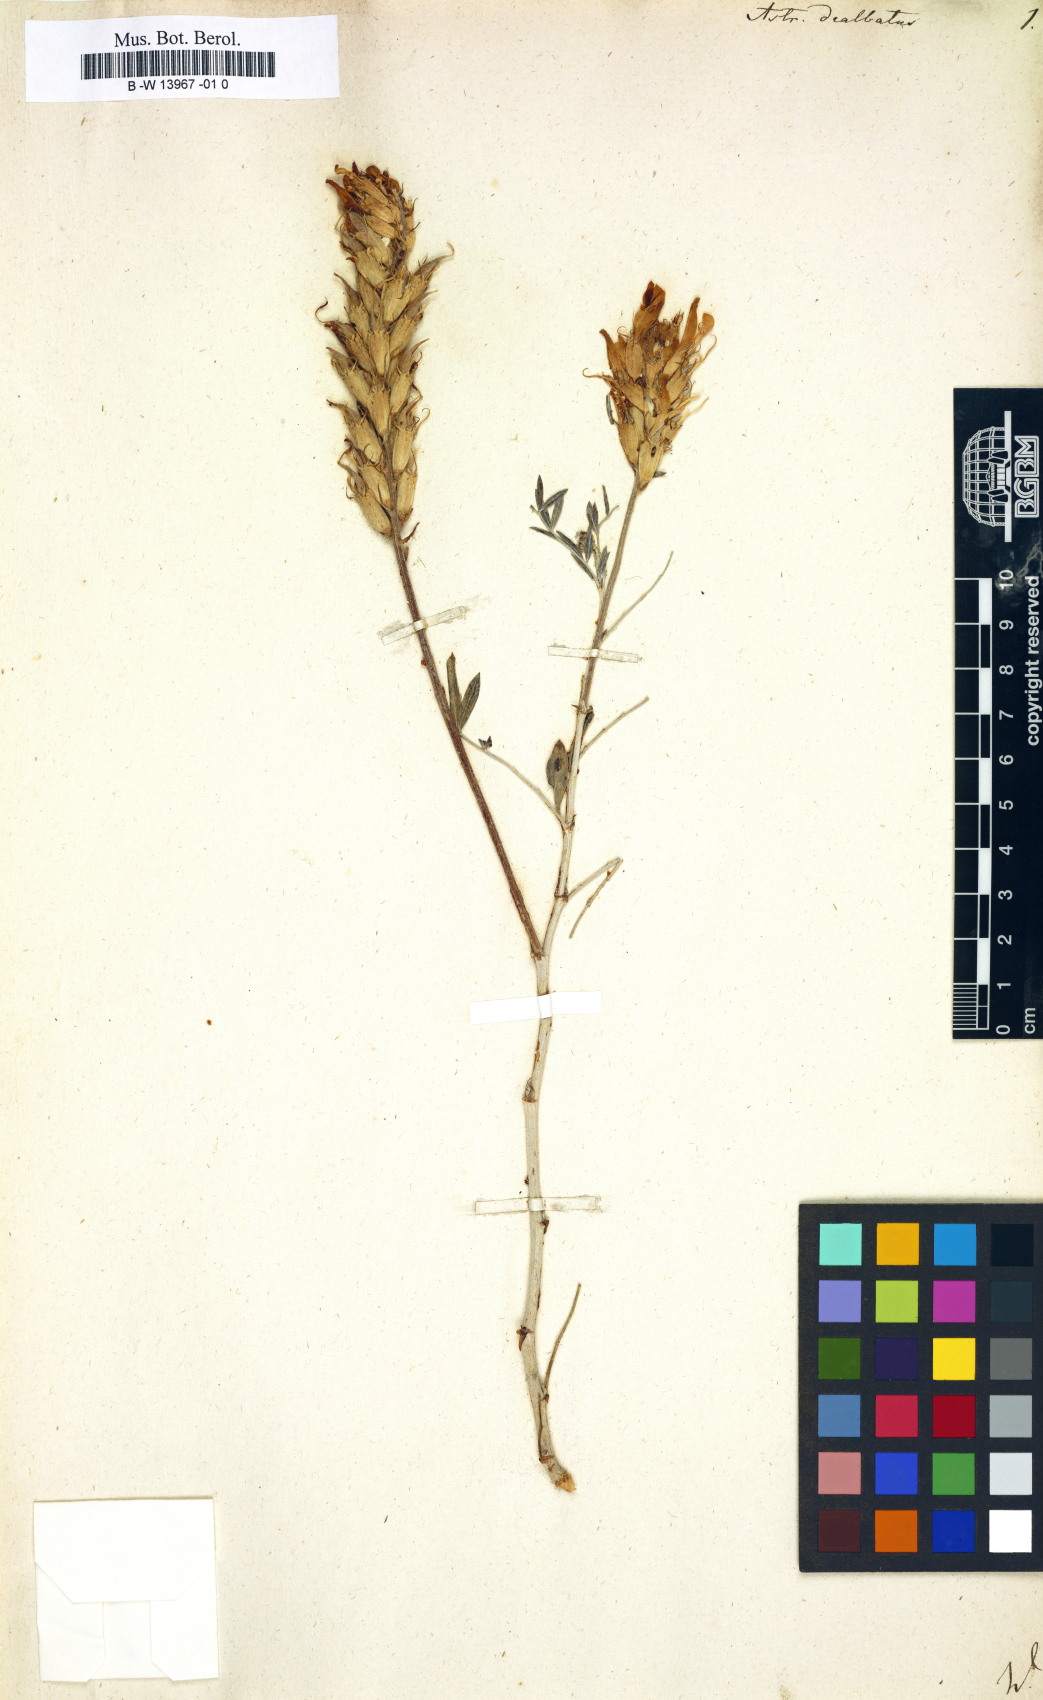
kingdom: Plantae
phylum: Tracheophyta
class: Magnoliopsida
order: Fabales
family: Fabaceae
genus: Astragalus
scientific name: Astragalus
